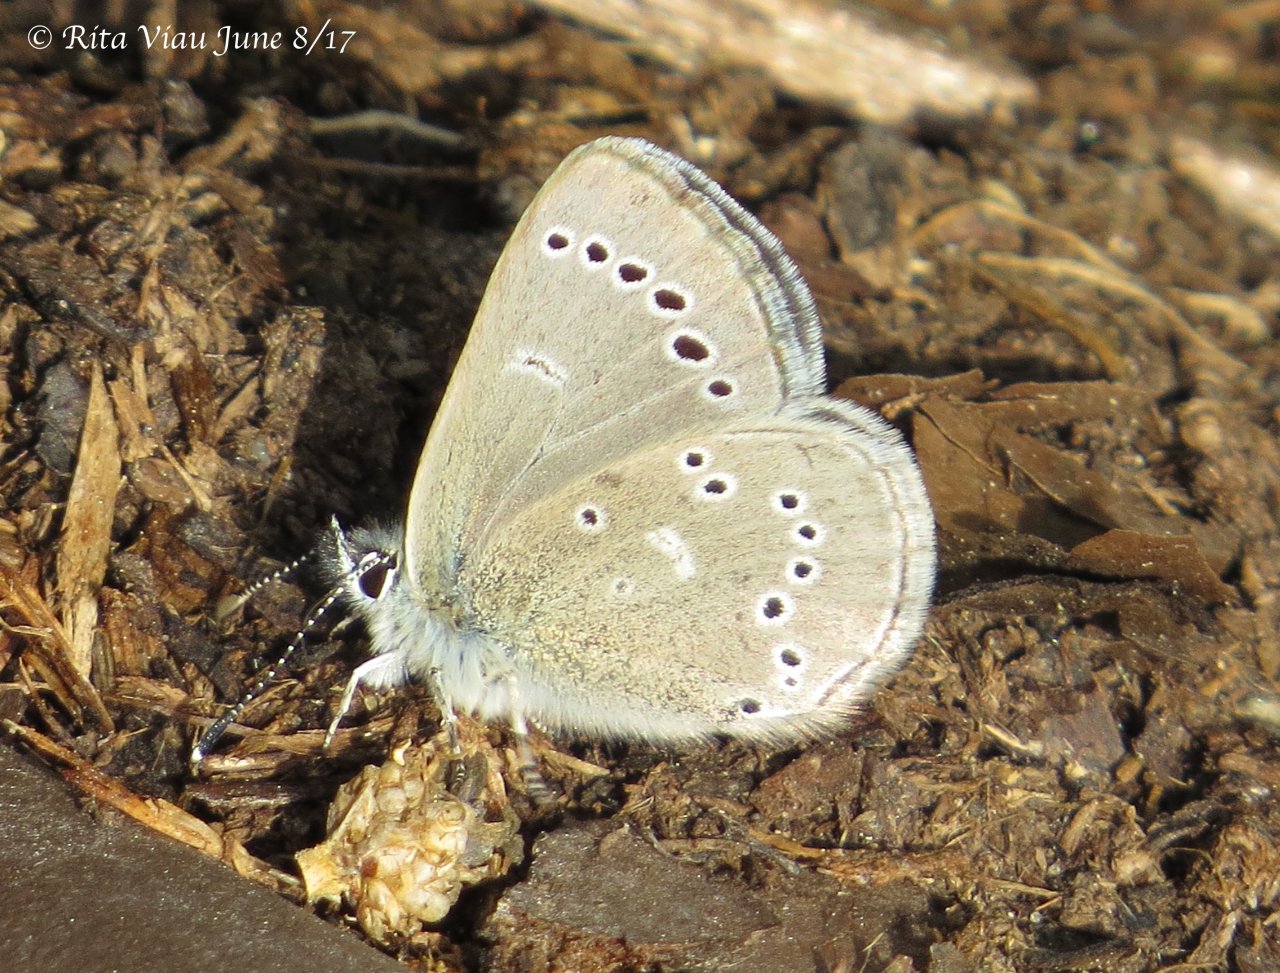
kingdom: Animalia
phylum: Arthropoda
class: Insecta
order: Lepidoptera
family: Lycaenidae
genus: Glaucopsyche
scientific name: Glaucopsyche lygdamus
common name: Silvery Blue
